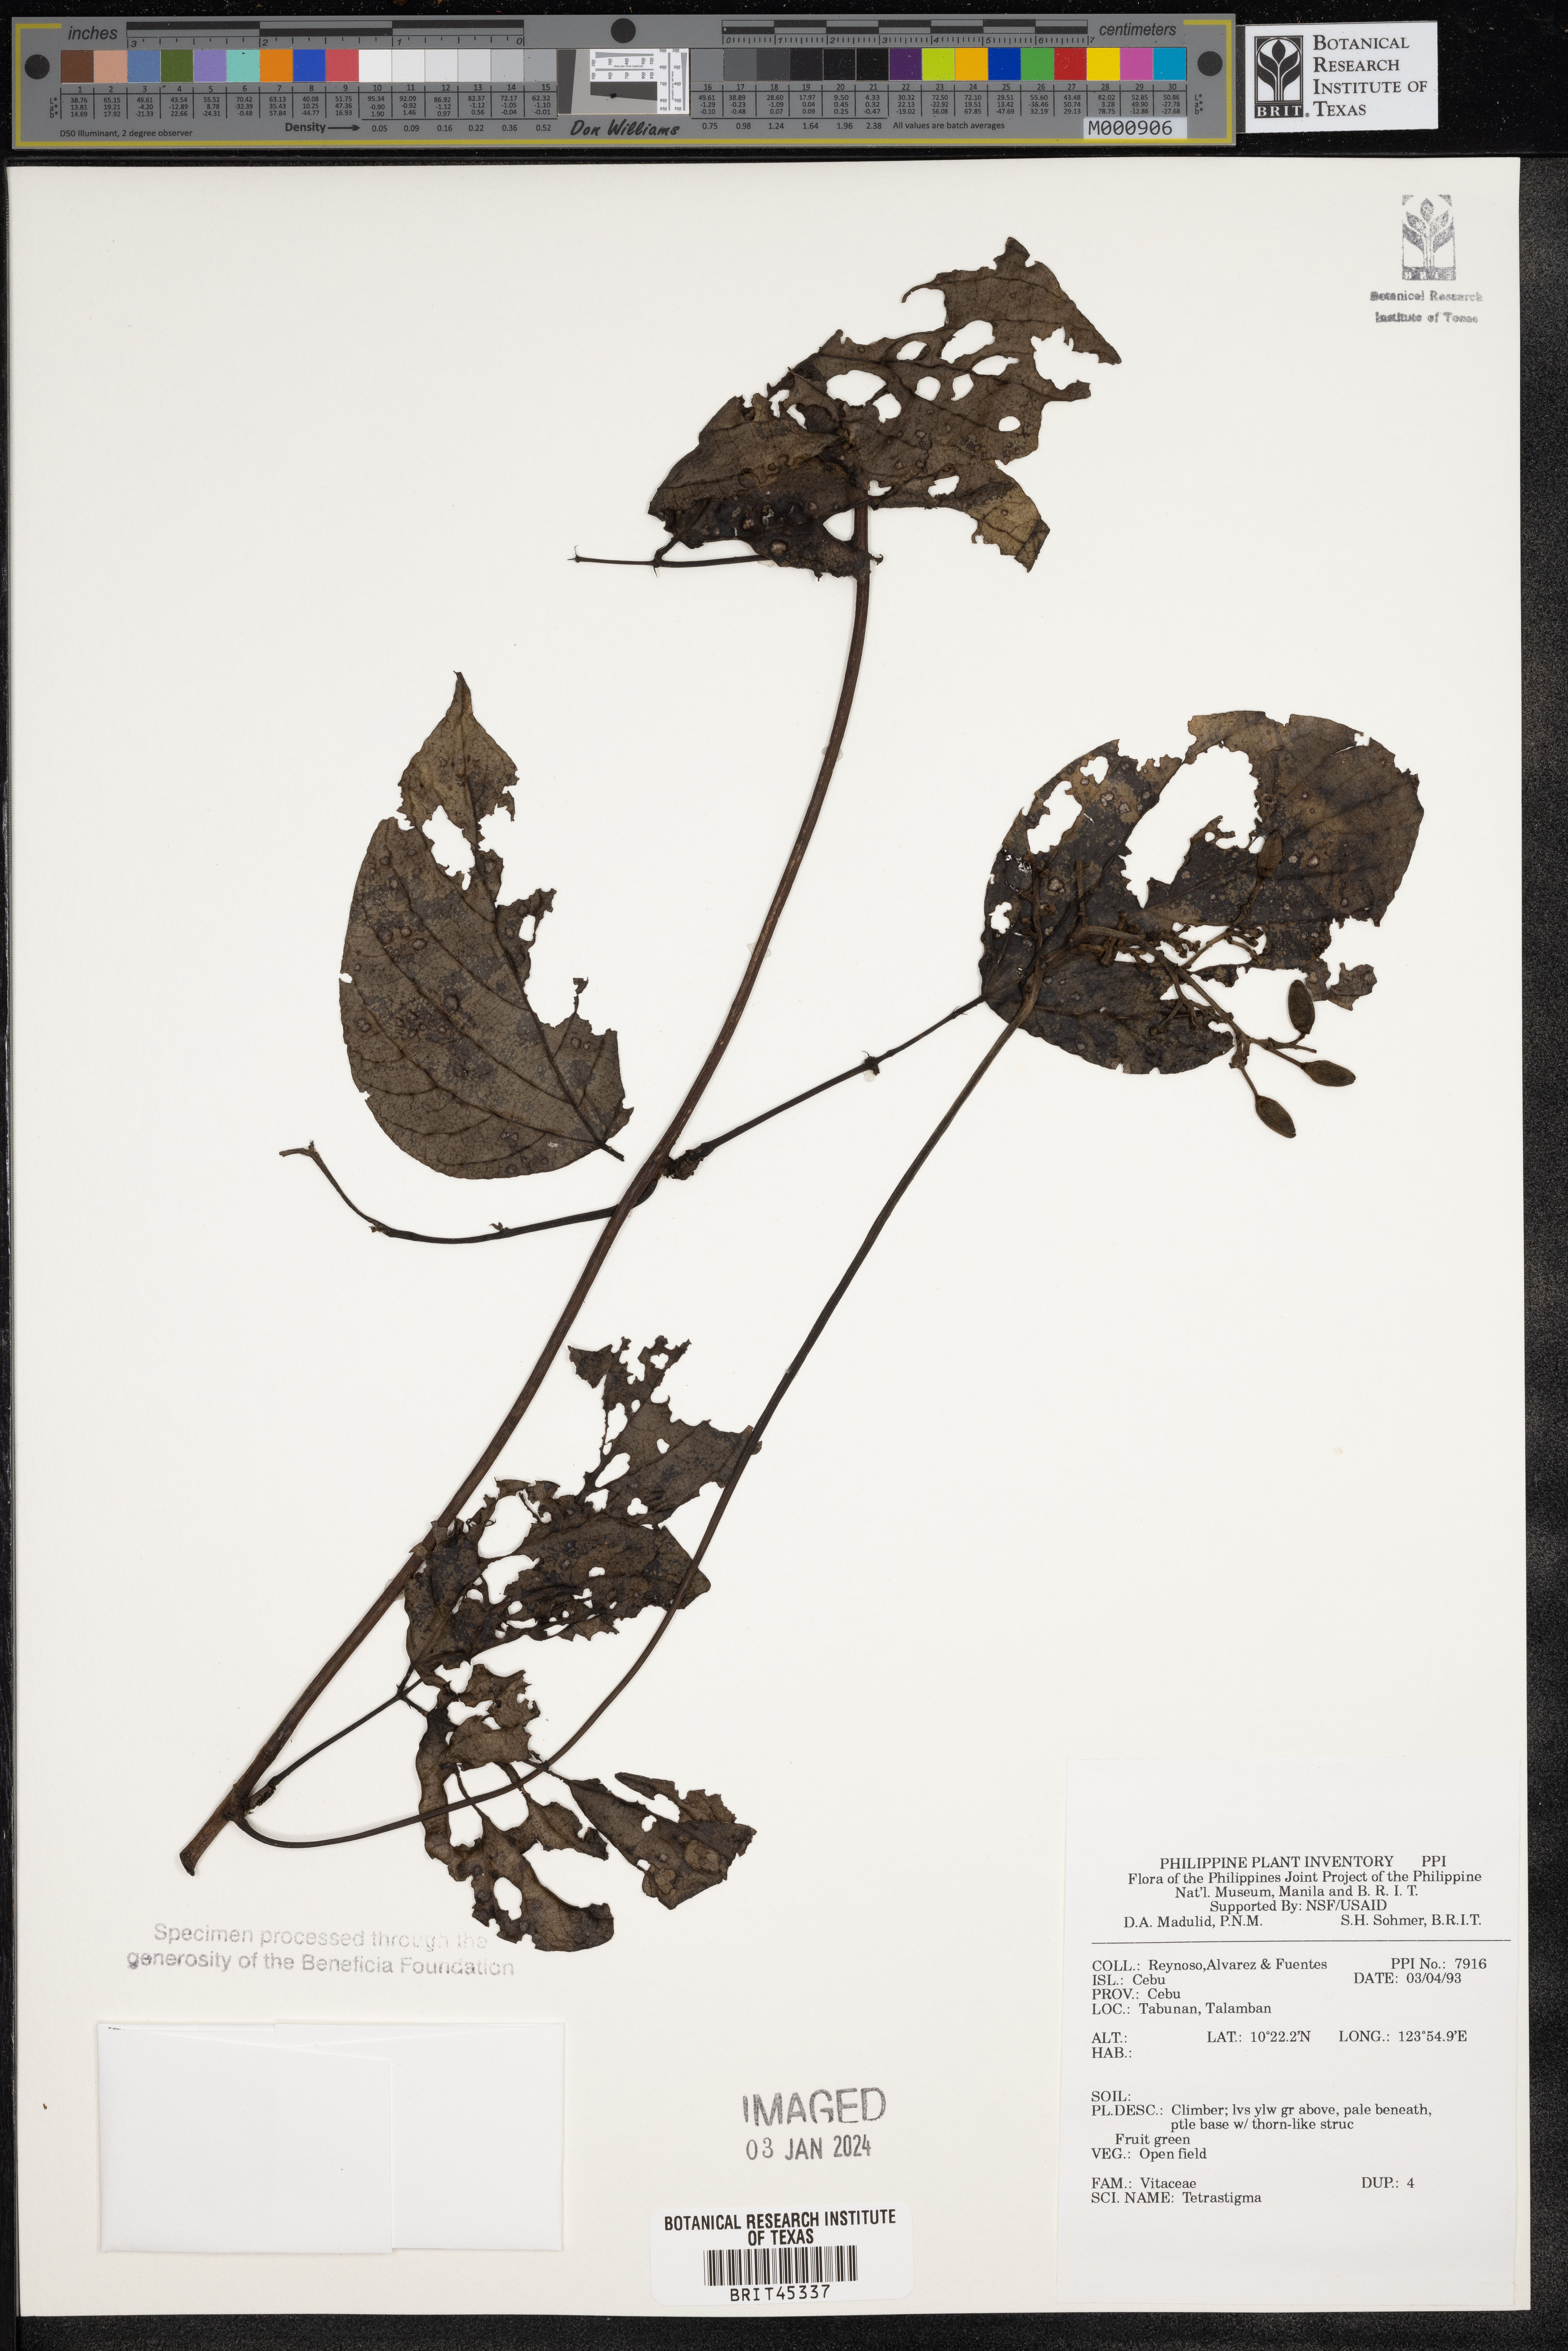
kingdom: Plantae
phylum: Tracheophyta
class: Magnoliopsida
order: Vitales
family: Vitaceae
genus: Tetrastigma
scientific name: Tetrastigma
